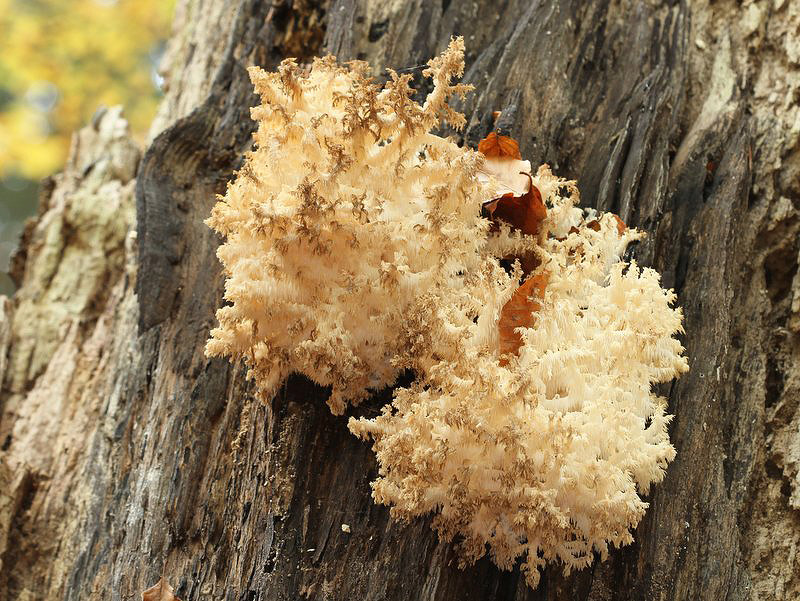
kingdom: Fungi
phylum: Basidiomycota
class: Agaricomycetes
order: Russulales
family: Hericiaceae
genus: Hericium
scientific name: Hericium coralloides
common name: koralpigsvamp
